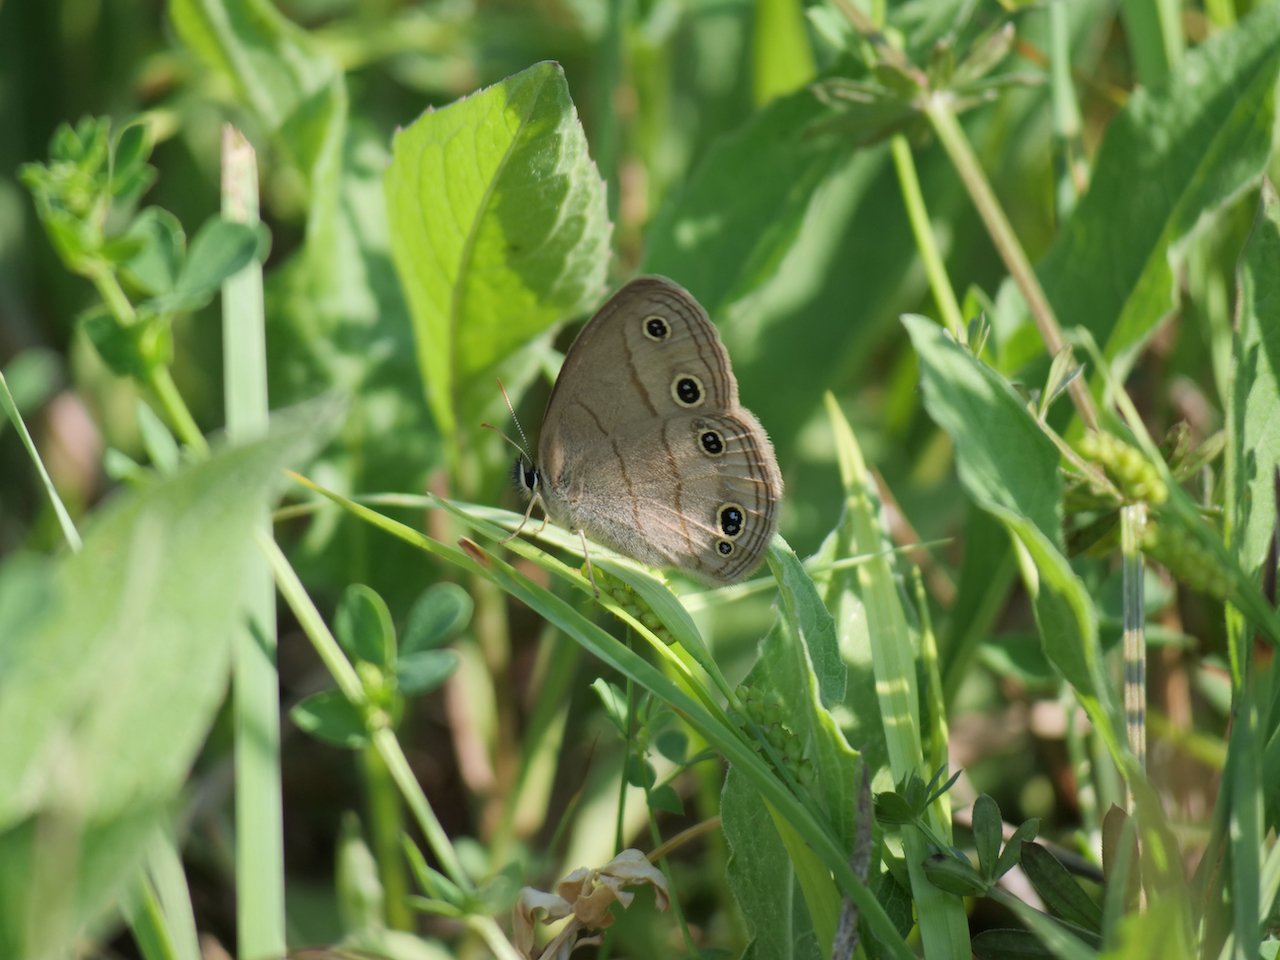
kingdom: Animalia
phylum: Arthropoda
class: Insecta
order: Lepidoptera
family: Nymphalidae
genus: Euptychia
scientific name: Euptychia cymela
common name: Little Wood Satyr
